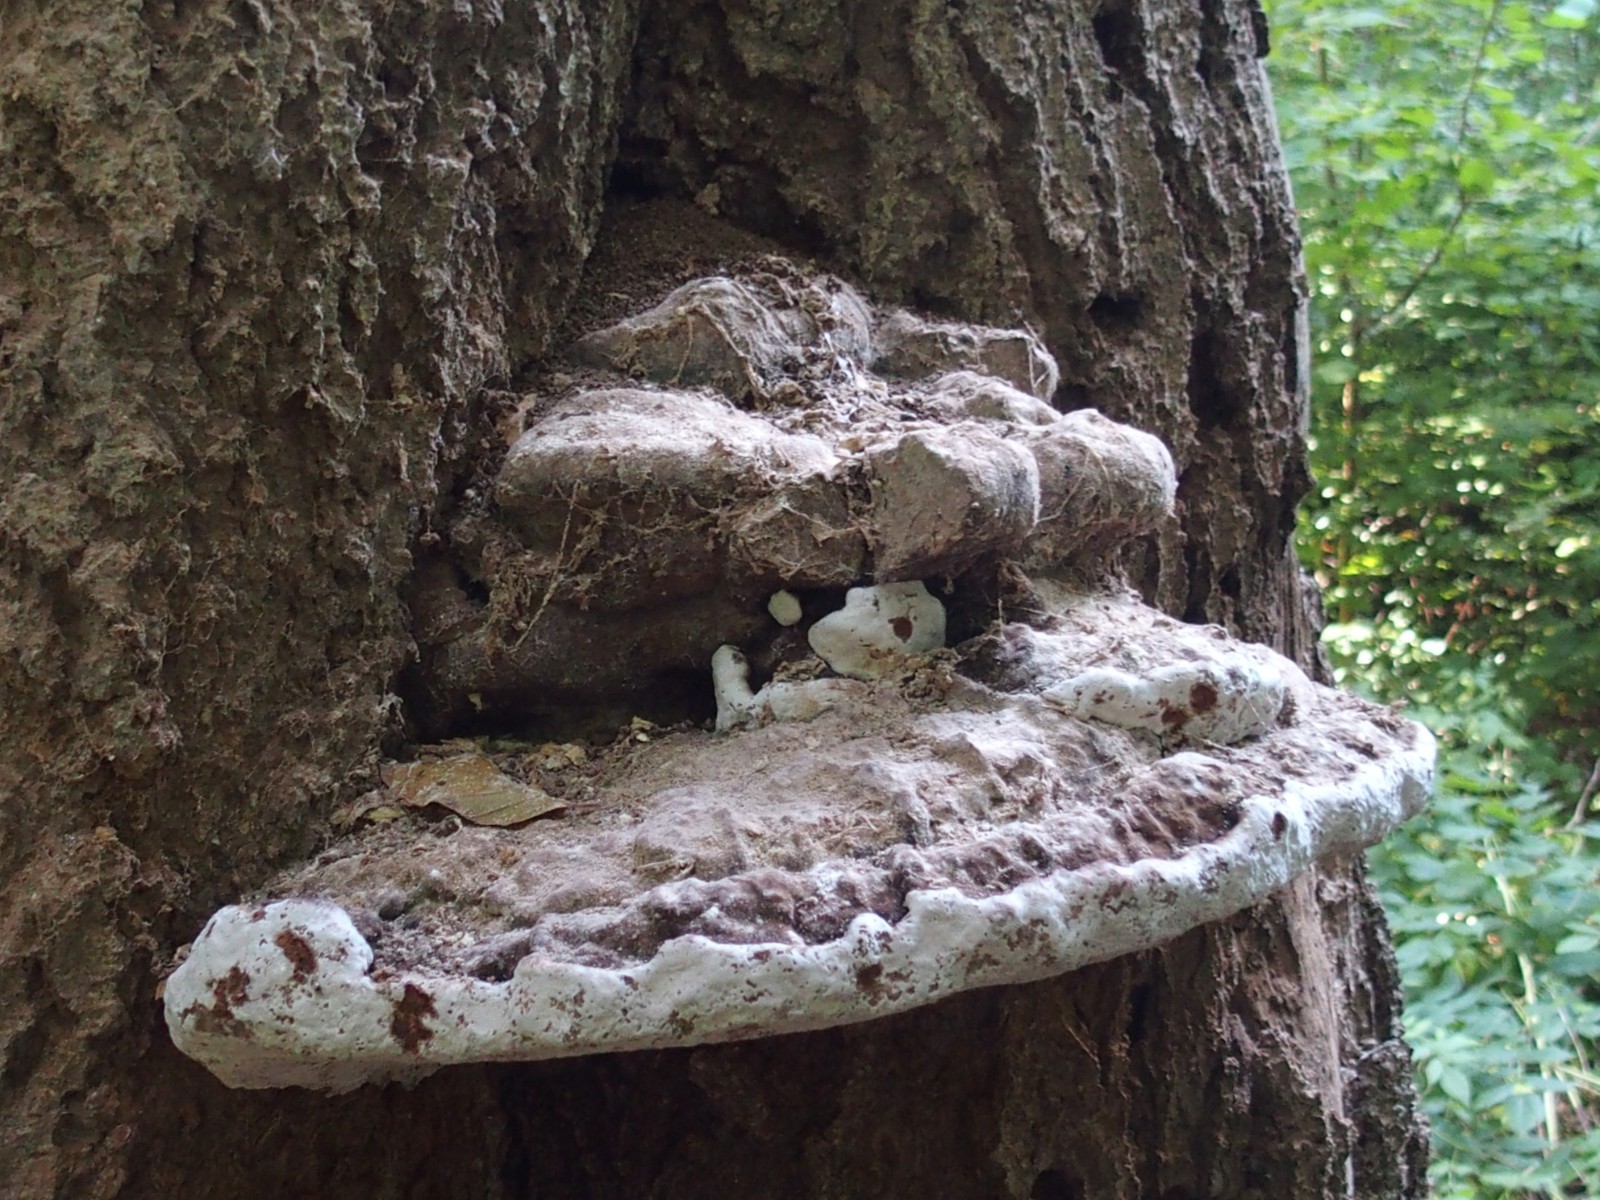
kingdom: Fungi
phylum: Basidiomycota
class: Agaricomycetes
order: Polyporales
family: Polyporaceae
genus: Ganoderma
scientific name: Ganoderma adspersum
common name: grov lakporesvamp
